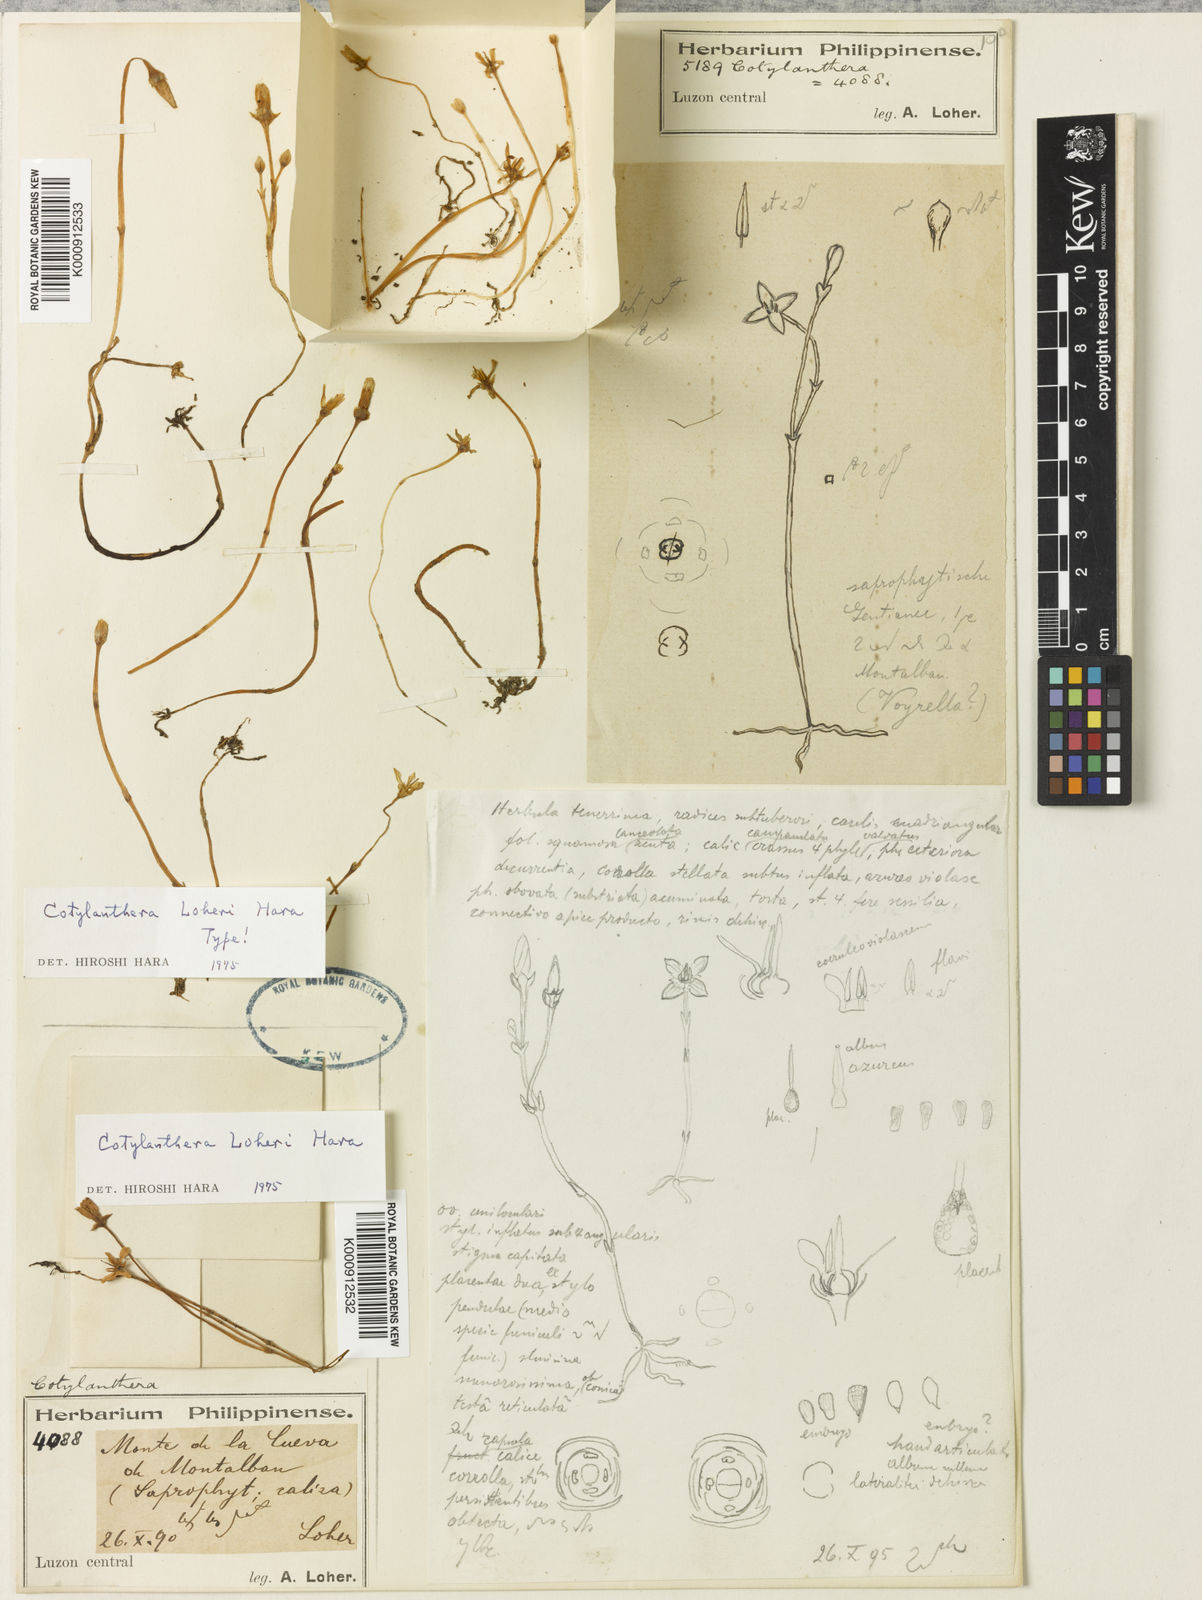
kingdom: Plantae
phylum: Tracheophyta
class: Magnoliopsida
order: Gentianales
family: Gentianaceae
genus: Exacum
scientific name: Exacum loheri
